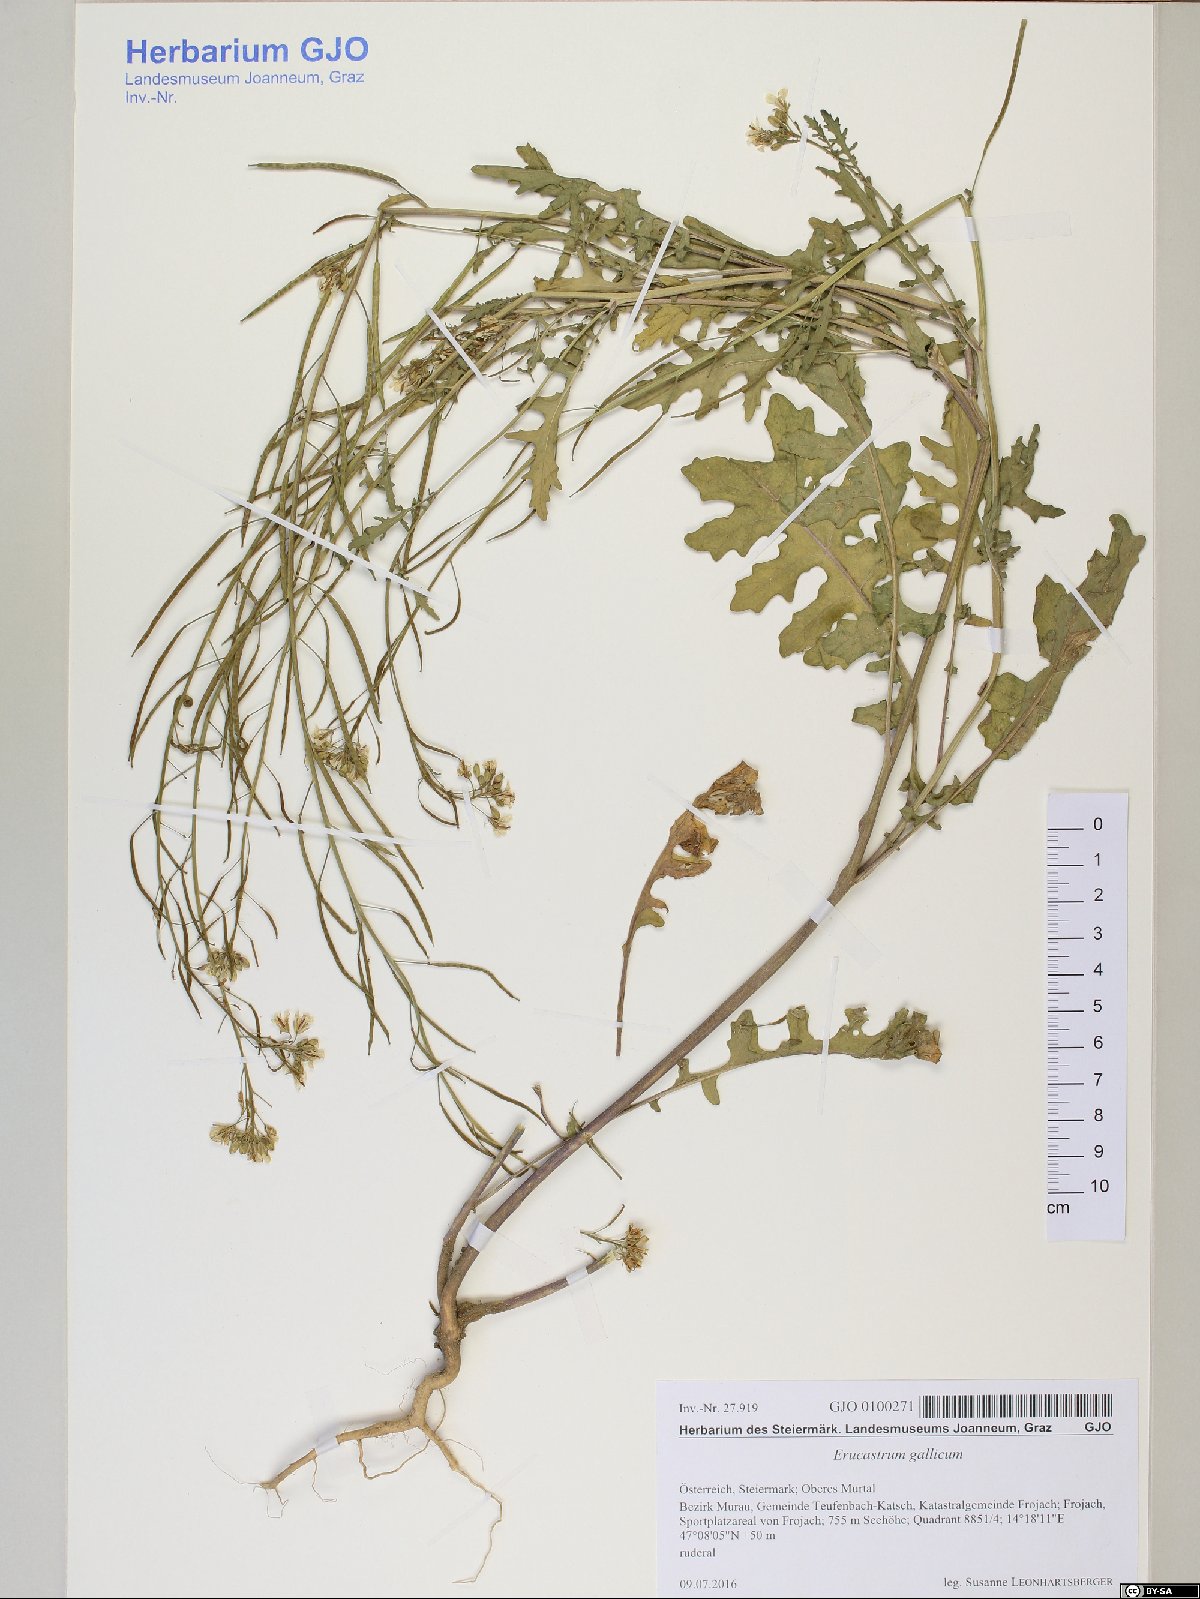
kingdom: Plantae
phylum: Tracheophyta
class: Magnoliopsida
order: Brassicales
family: Brassicaceae
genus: Erucastrum
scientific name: Erucastrum gallicum
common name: Hairy rocket
